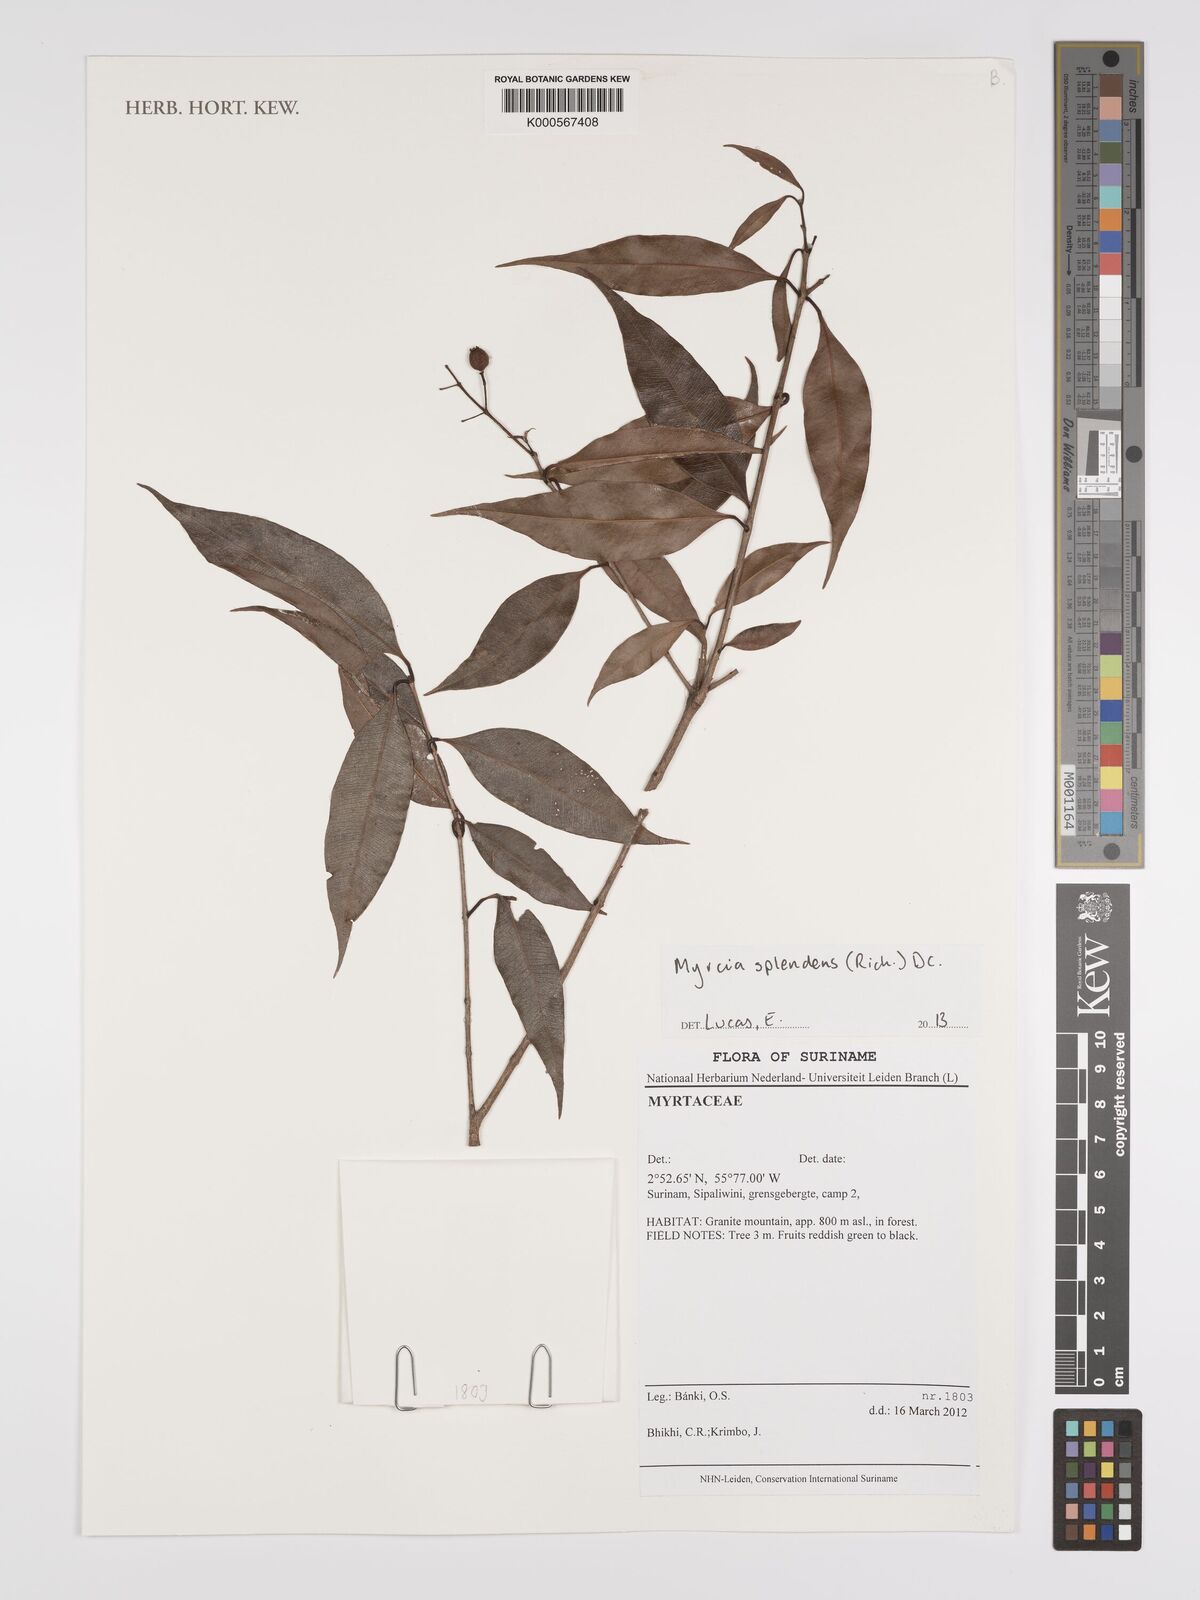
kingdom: Plantae
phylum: Tracheophyta
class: Magnoliopsida
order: Myrtales
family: Myrtaceae
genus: Myrcia
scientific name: Myrcia splendens
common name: Surinam cherry
